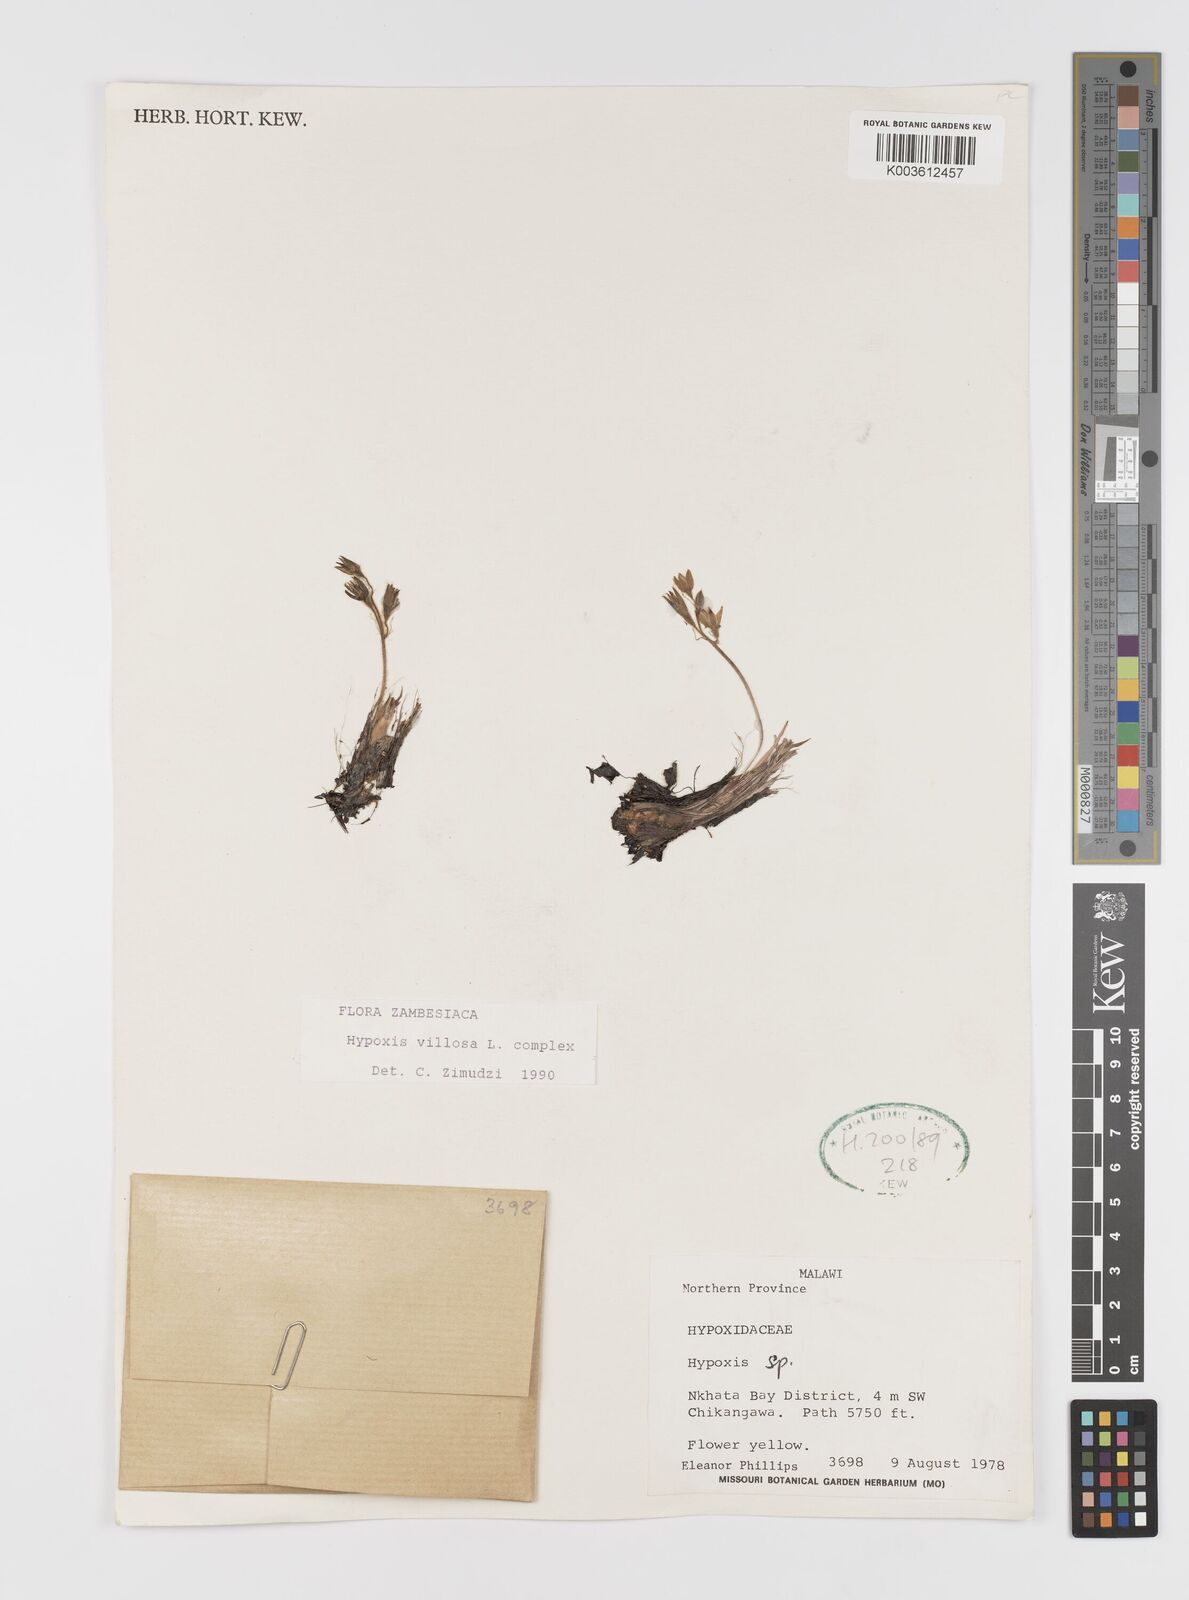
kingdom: Plantae
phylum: Tracheophyta
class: Liliopsida
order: Asparagales
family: Hypoxidaceae
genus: Hypoxis
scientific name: Hypoxis nyasica
